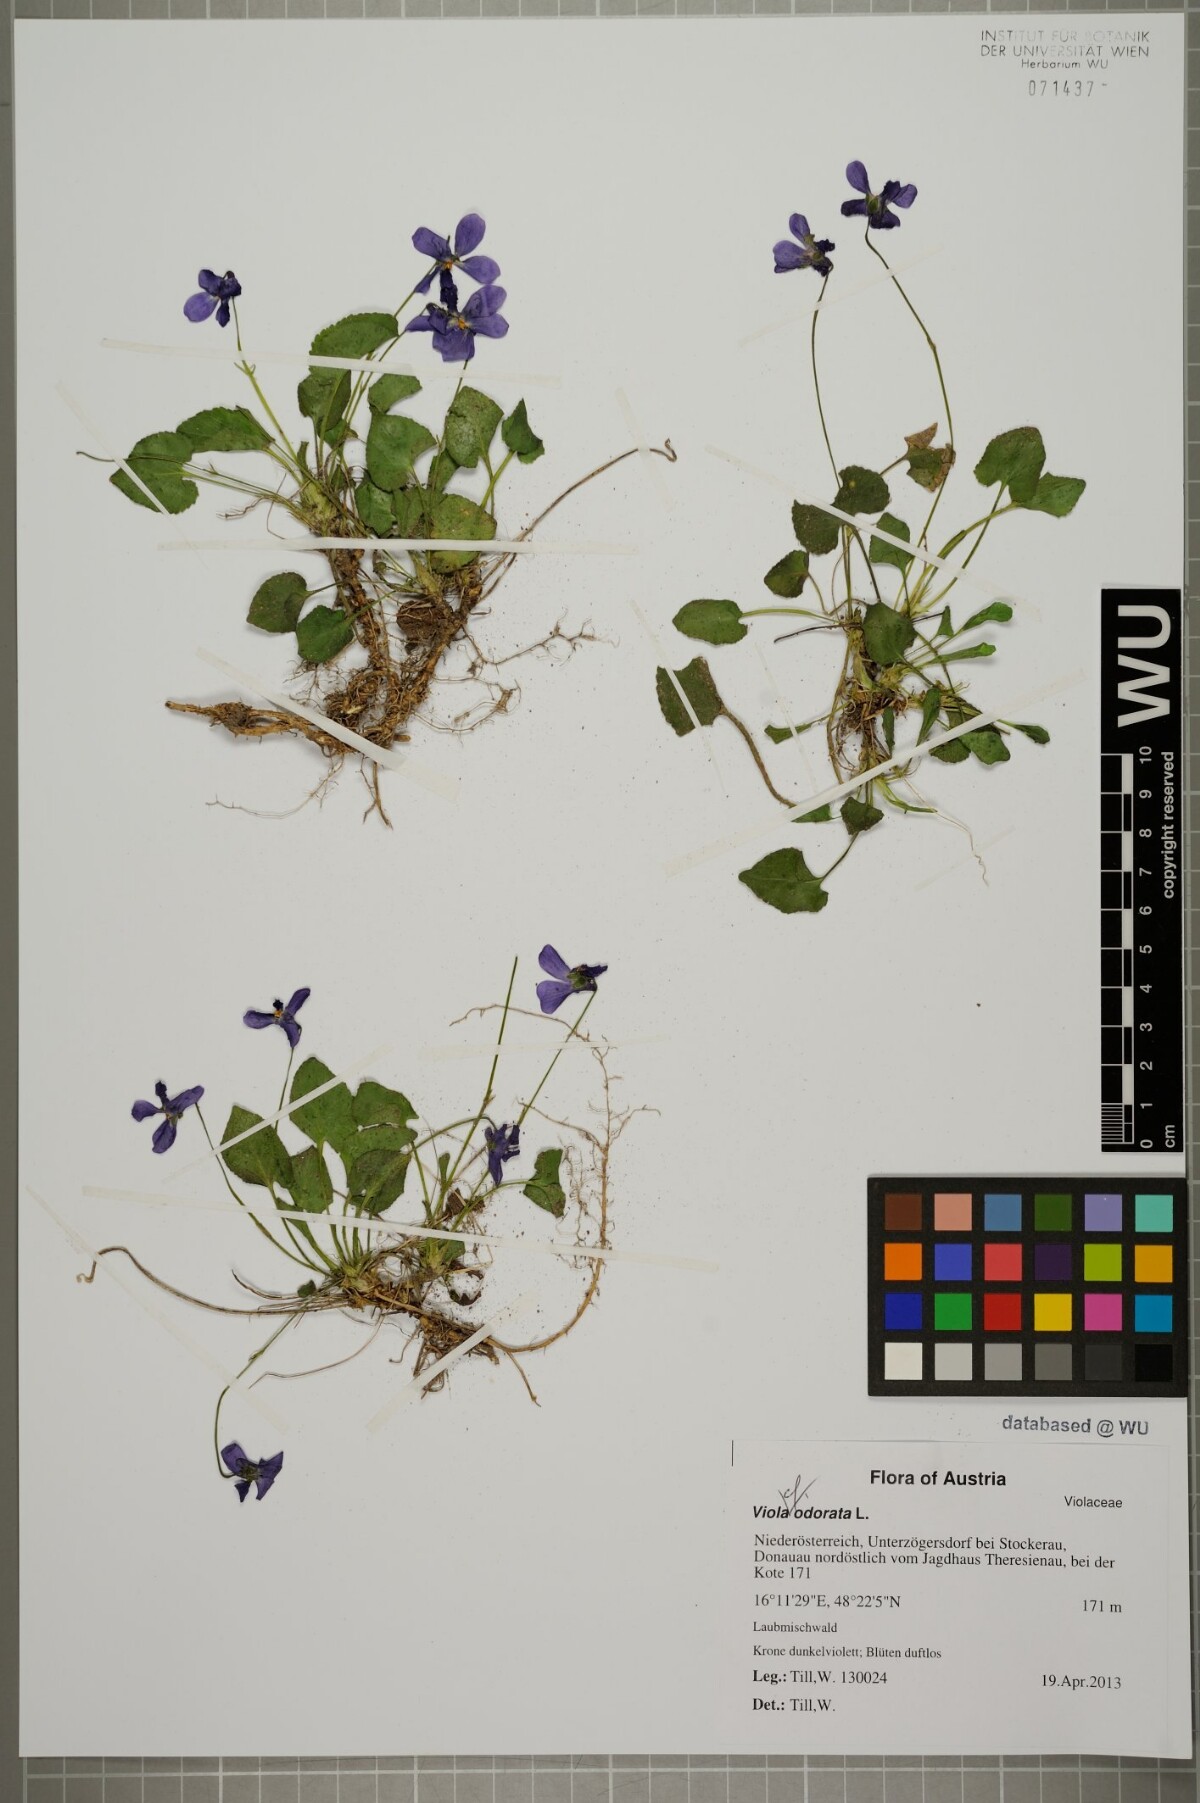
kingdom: Plantae
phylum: Tracheophyta
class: Magnoliopsida
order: Malpighiales
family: Violaceae
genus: Viola
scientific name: Viola odorata
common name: Sweet violet
